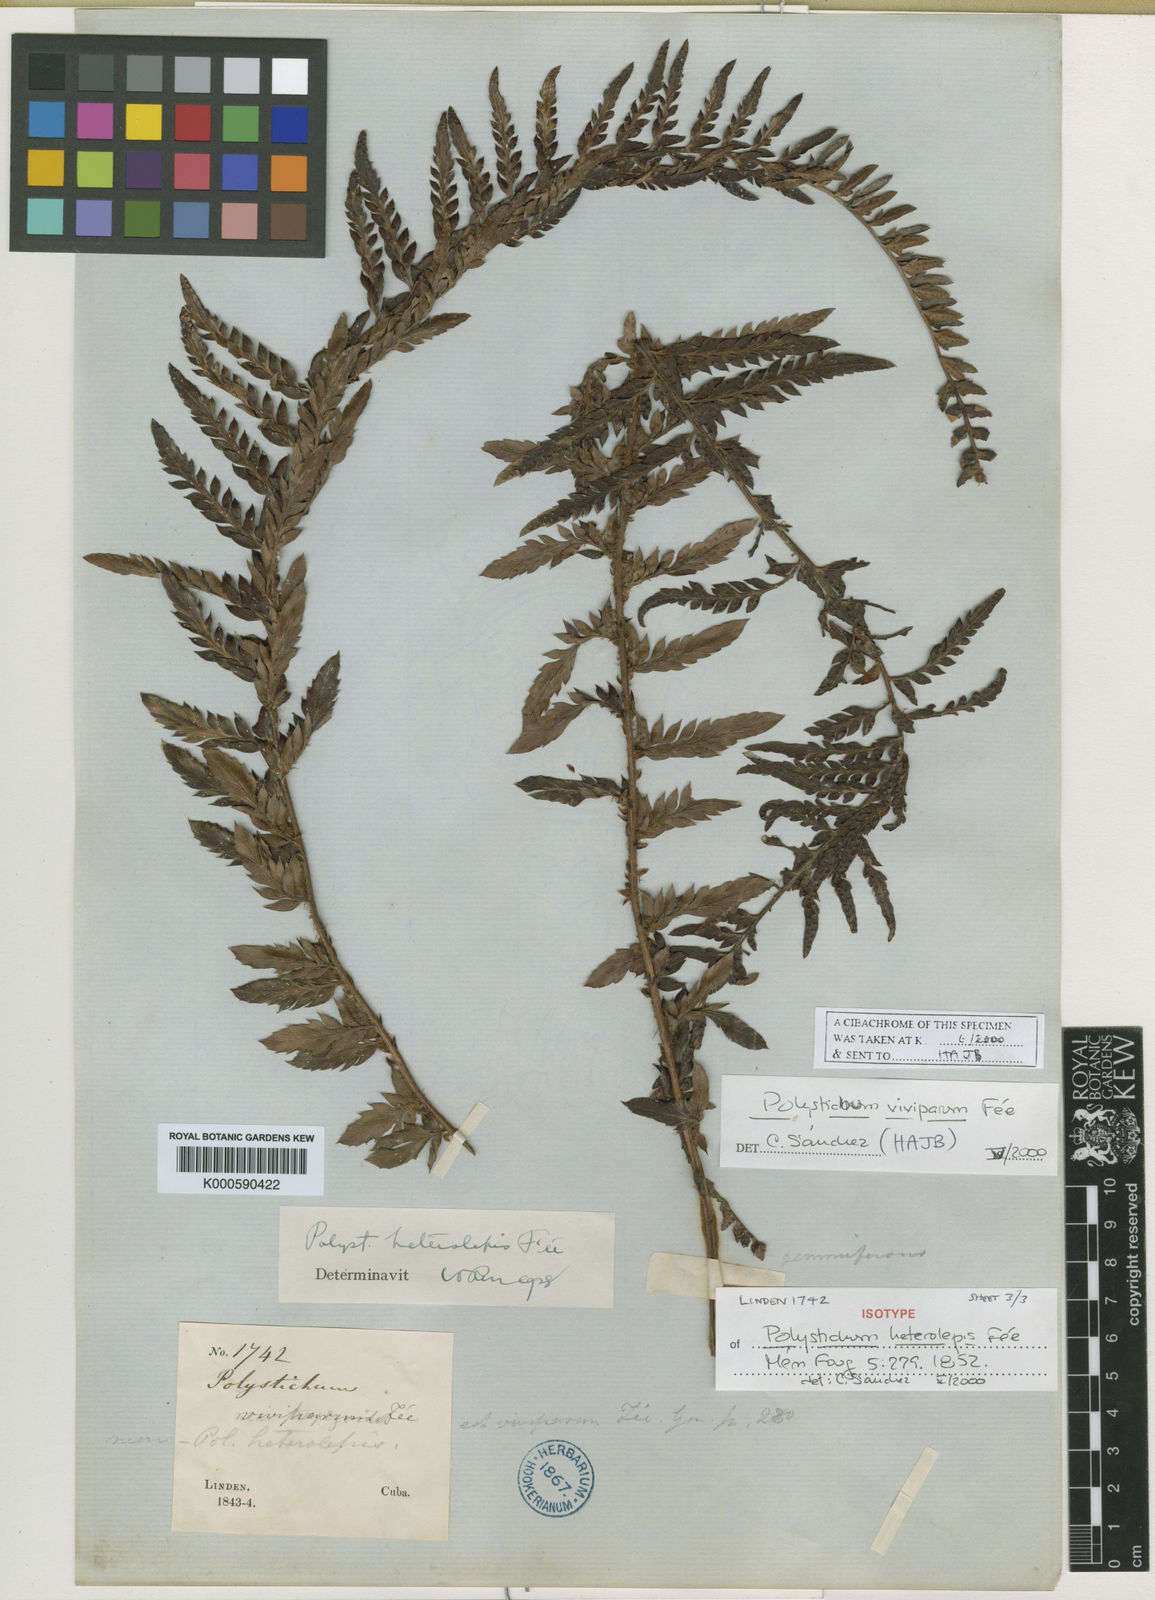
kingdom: Plantae
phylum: Tracheophyta
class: Polypodiopsida
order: Polypodiales
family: Dryopteridaceae
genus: Polystichum
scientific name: Polystichum trapezoides
